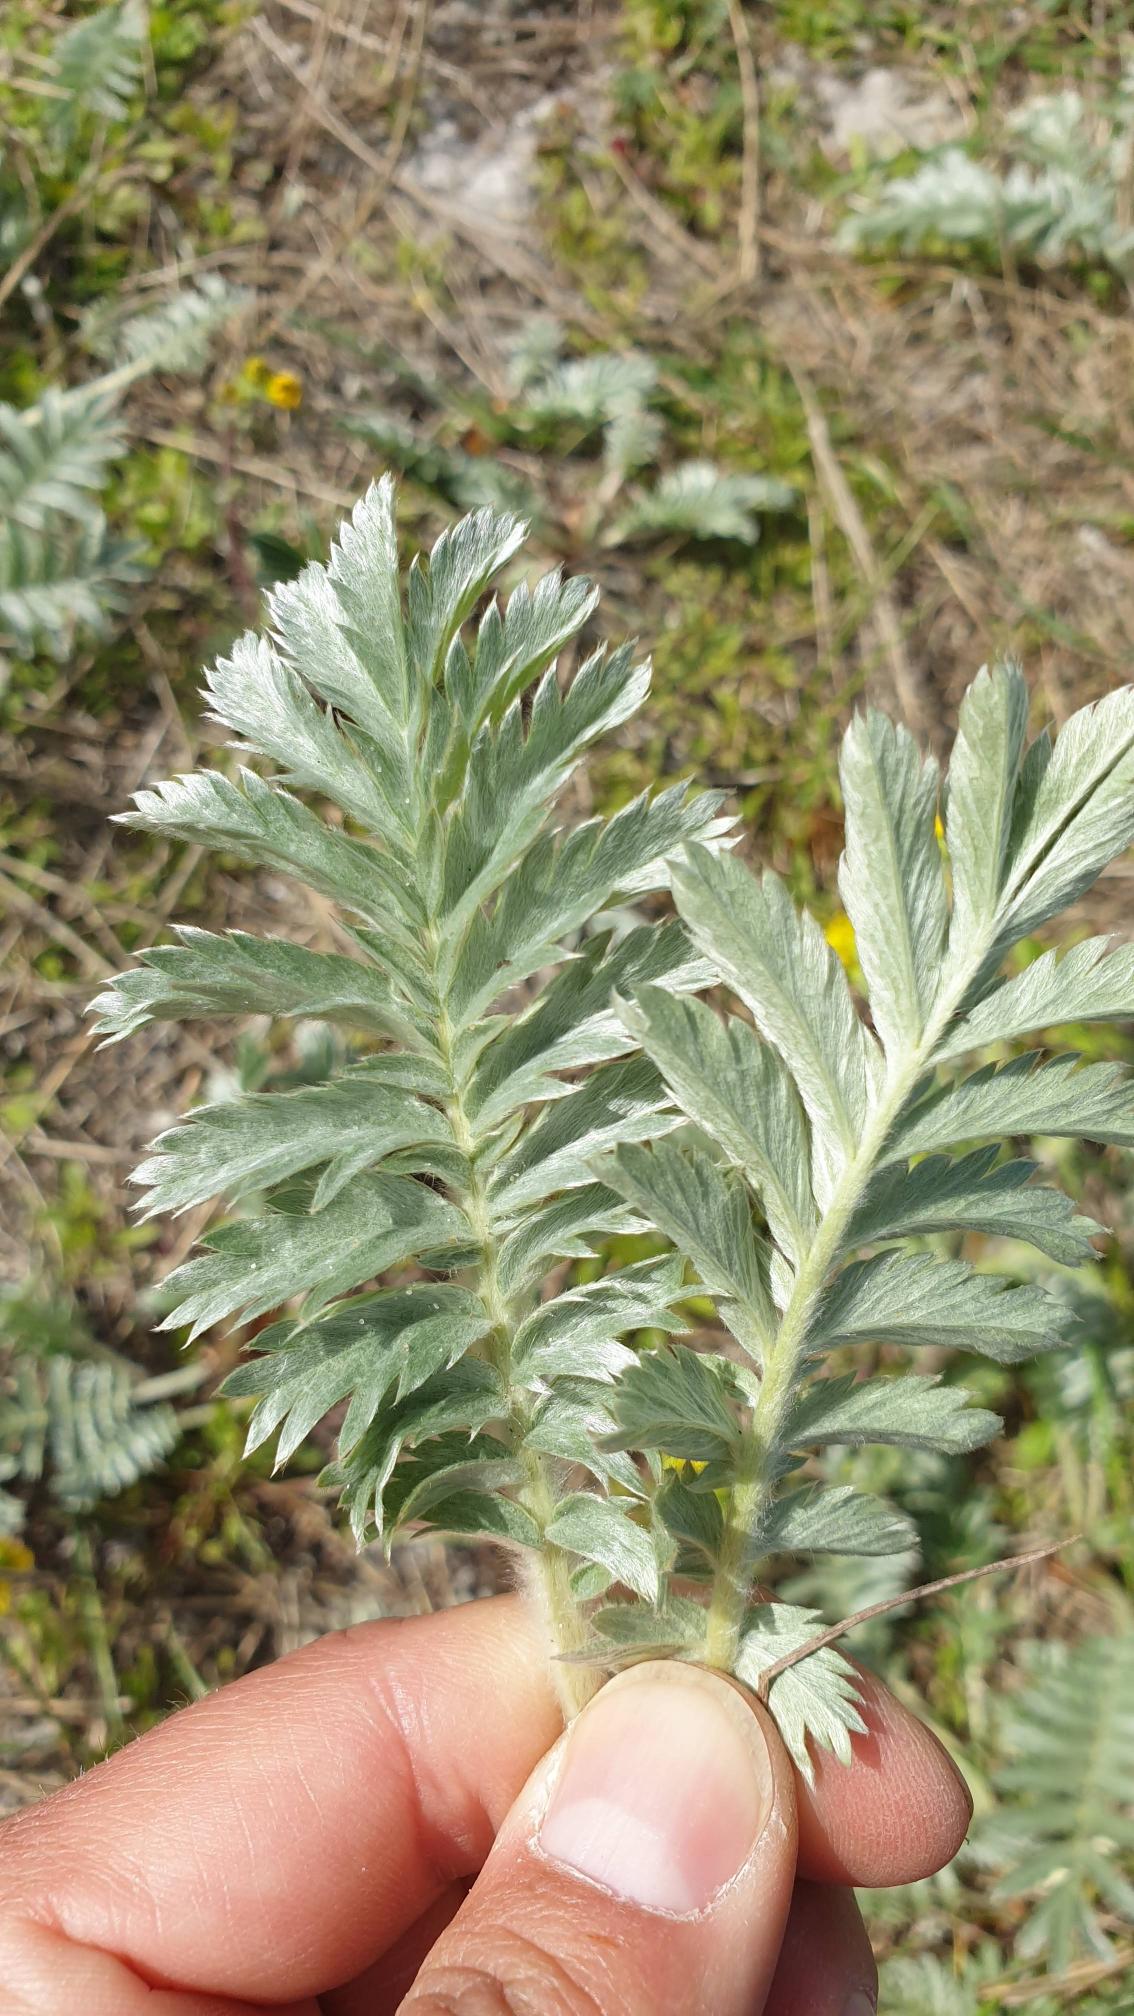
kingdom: Plantae
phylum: Tracheophyta
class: Magnoliopsida
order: Rosales
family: Rosaceae
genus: Argentina
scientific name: Argentina anserina
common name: Gåsepotentil
